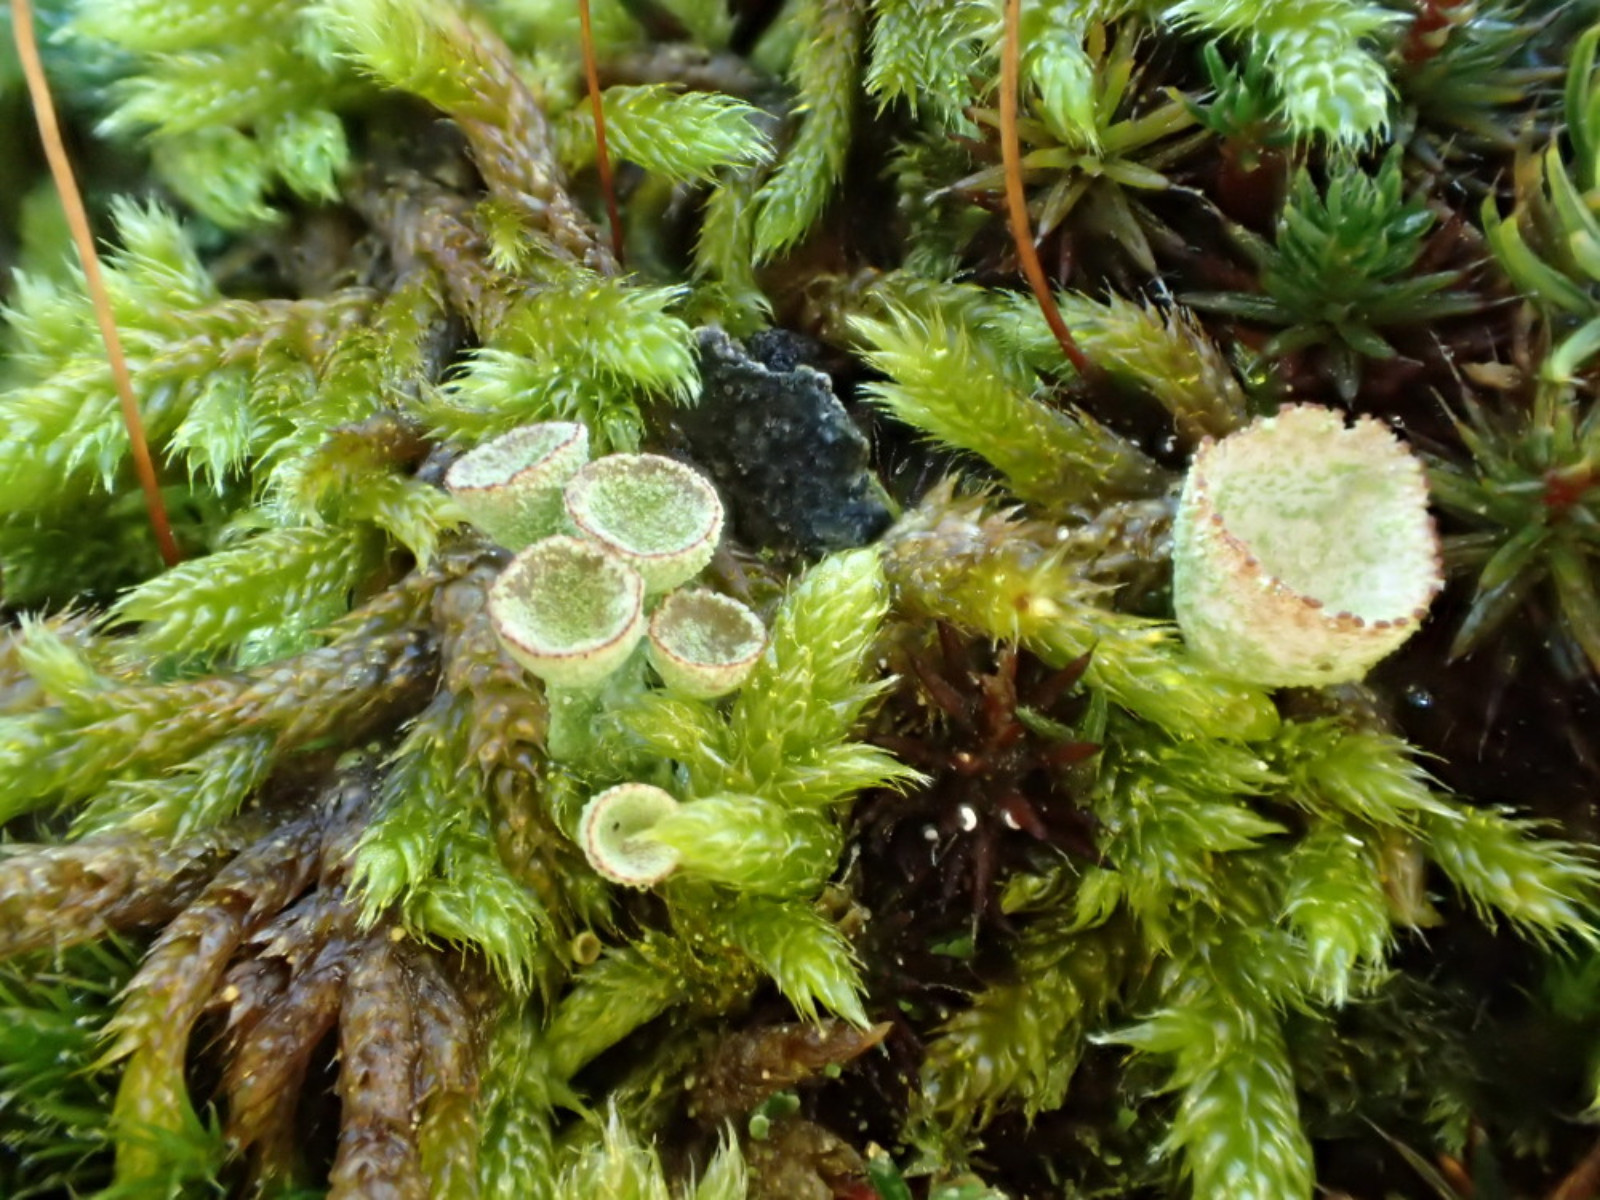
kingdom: Fungi
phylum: Ascomycota
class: Lecanoromycetes
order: Lecanorales
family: Cladoniaceae
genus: Cladonia
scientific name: Cladonia
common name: brungrøn bægerlav
